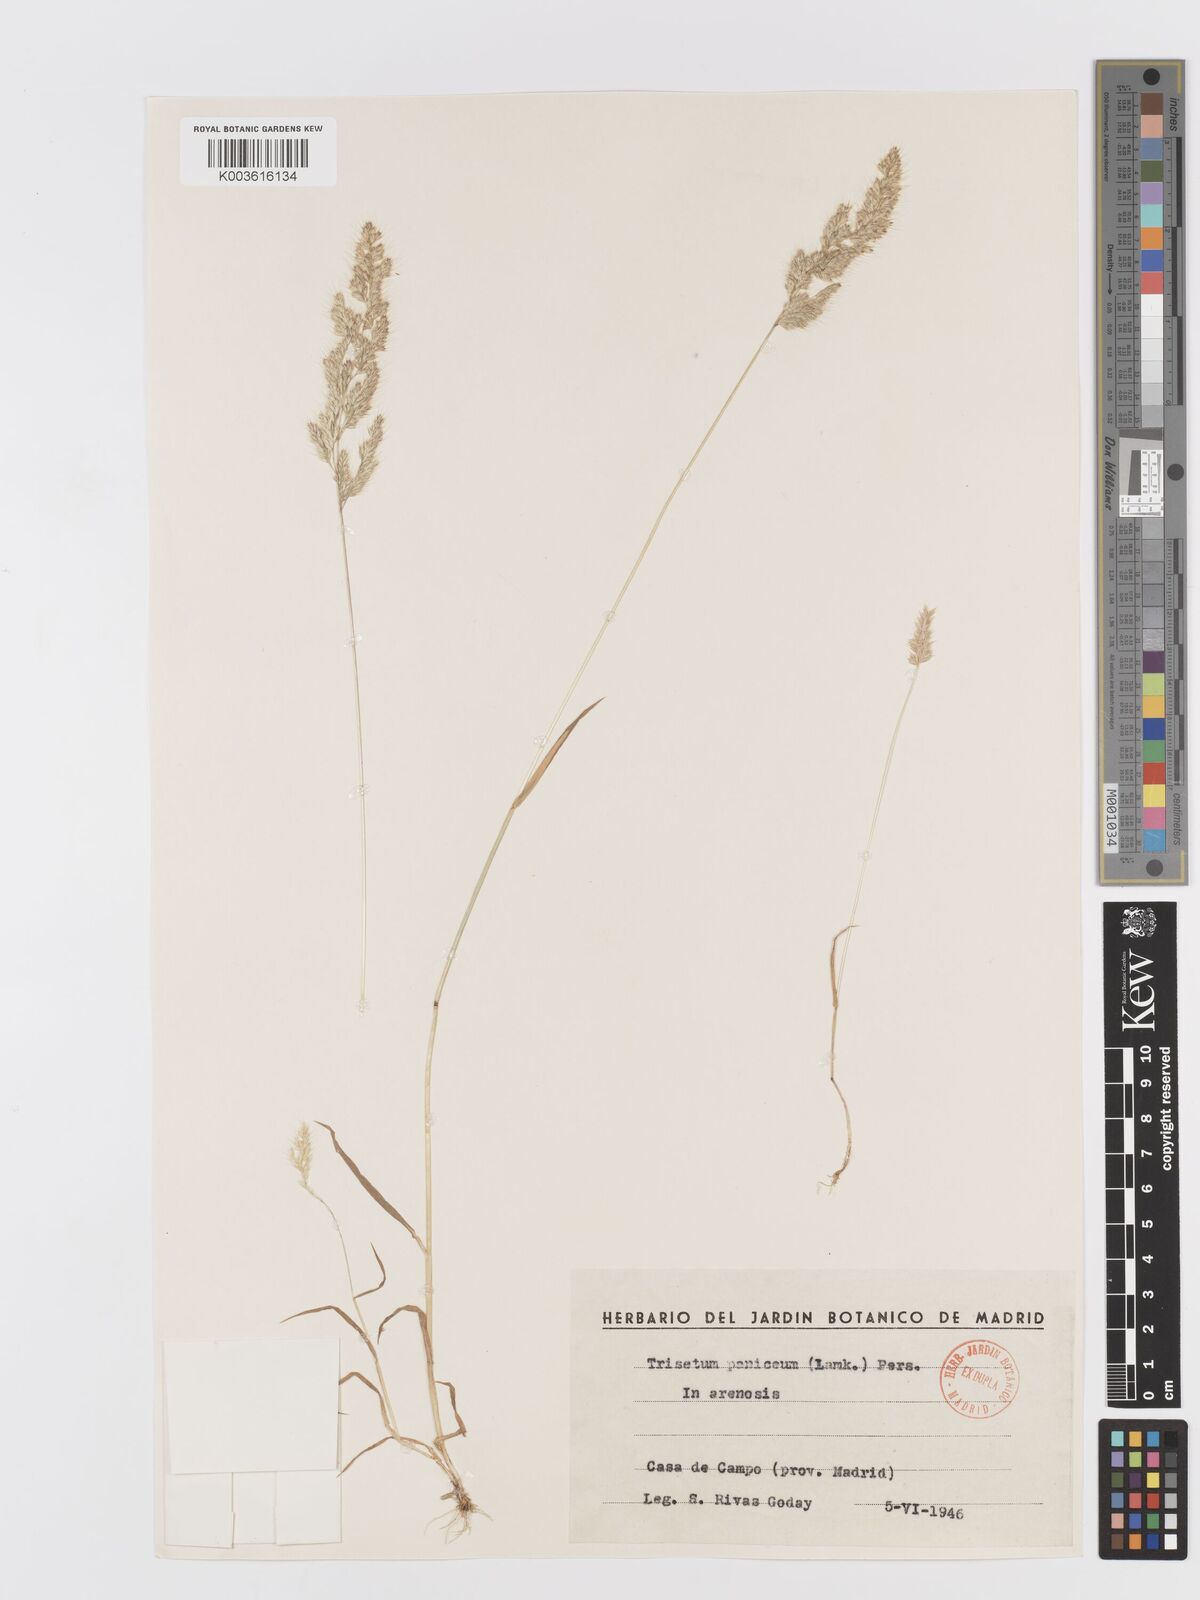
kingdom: Plantae
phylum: Tracheophyta
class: Liliopsida
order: Poales
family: Poaceae
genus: Trisetaria
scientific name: Trisetaria panicea
